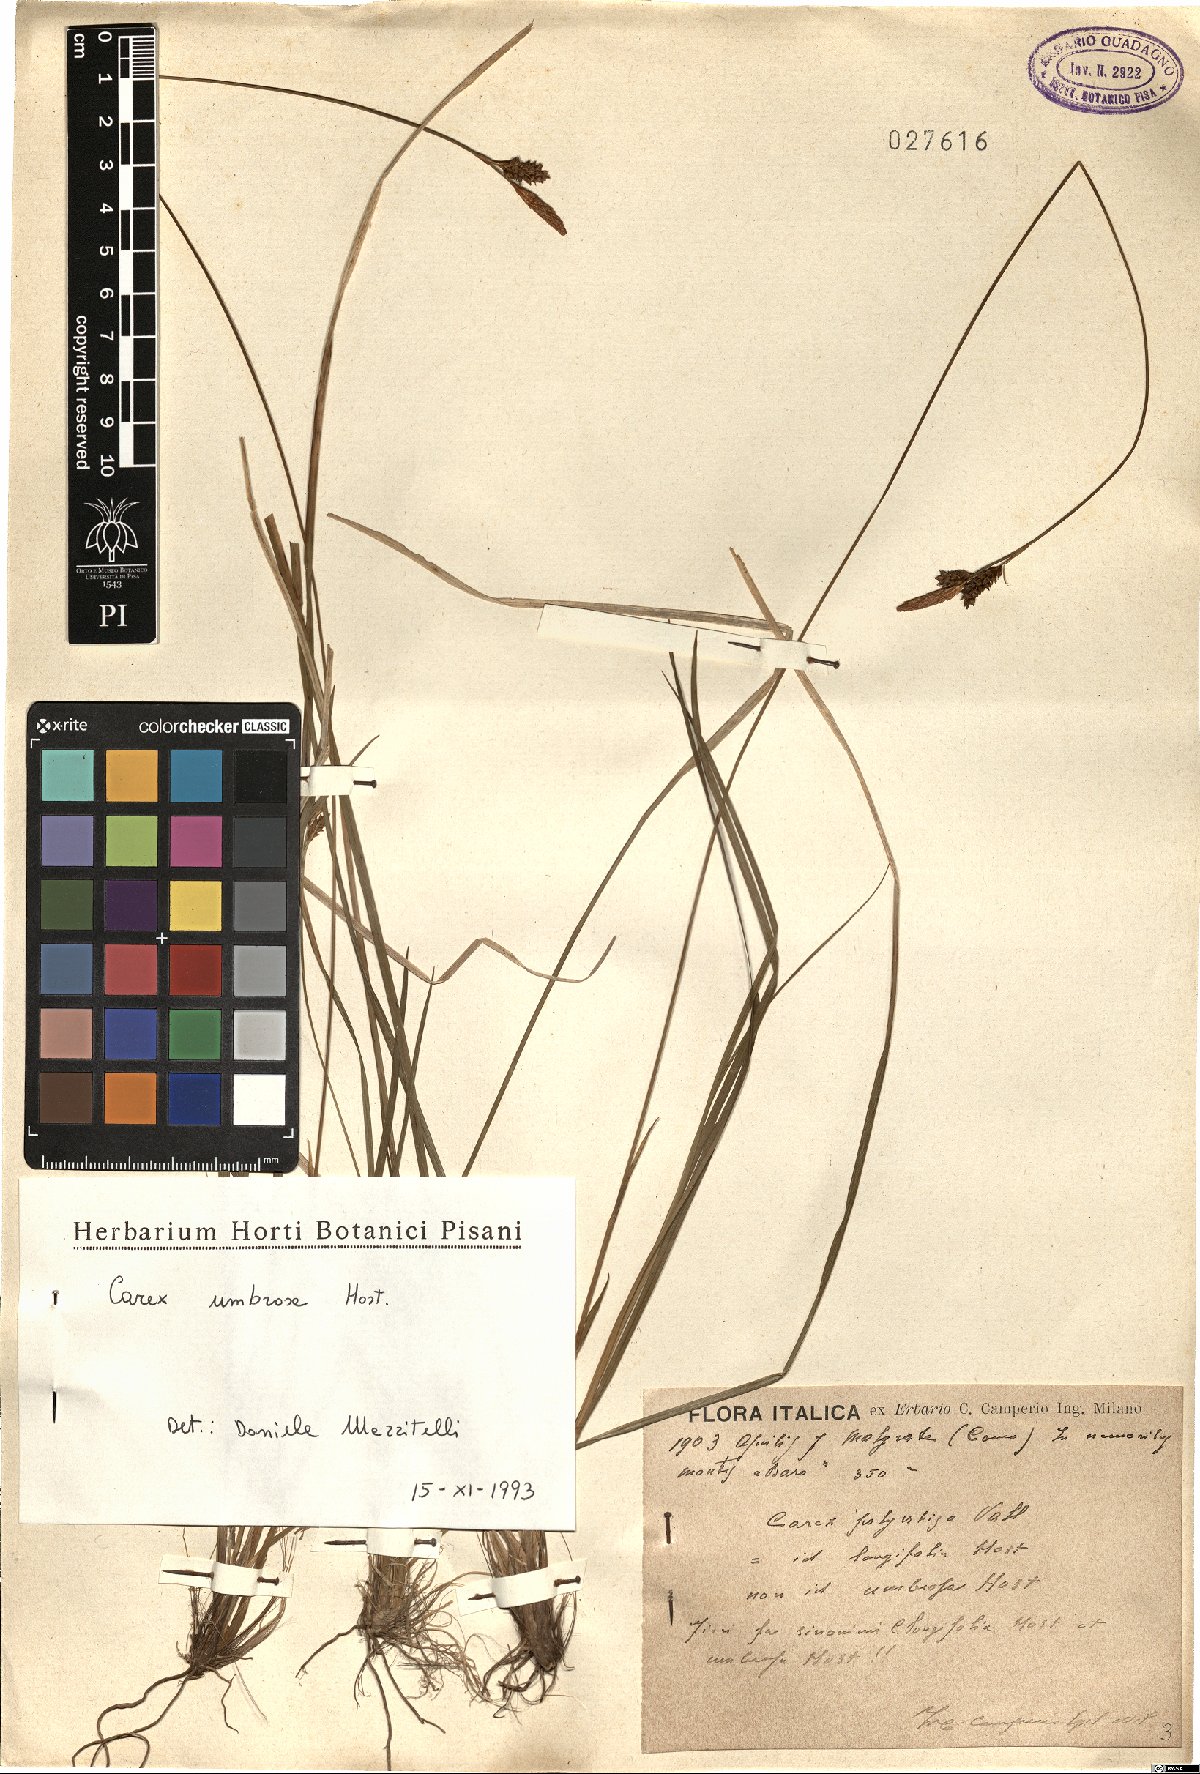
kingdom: Plantae
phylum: Tracheophyta
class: Liliopsida
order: Poales
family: Cyperaceae
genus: Carex
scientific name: Carex umbrosa
